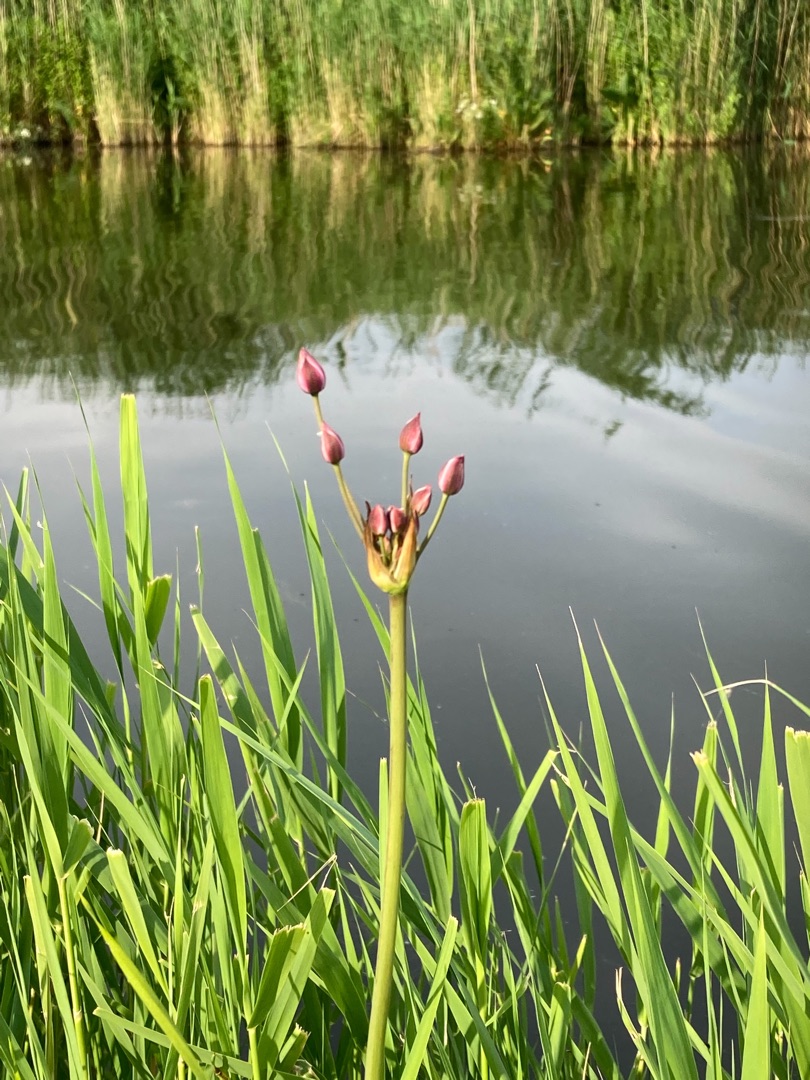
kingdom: Plantae
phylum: Tracheophyta
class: Liliopsida
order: Alismatales
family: Butomaceae
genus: Butomus
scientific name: Butomus umbellatus
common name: Brudelys
